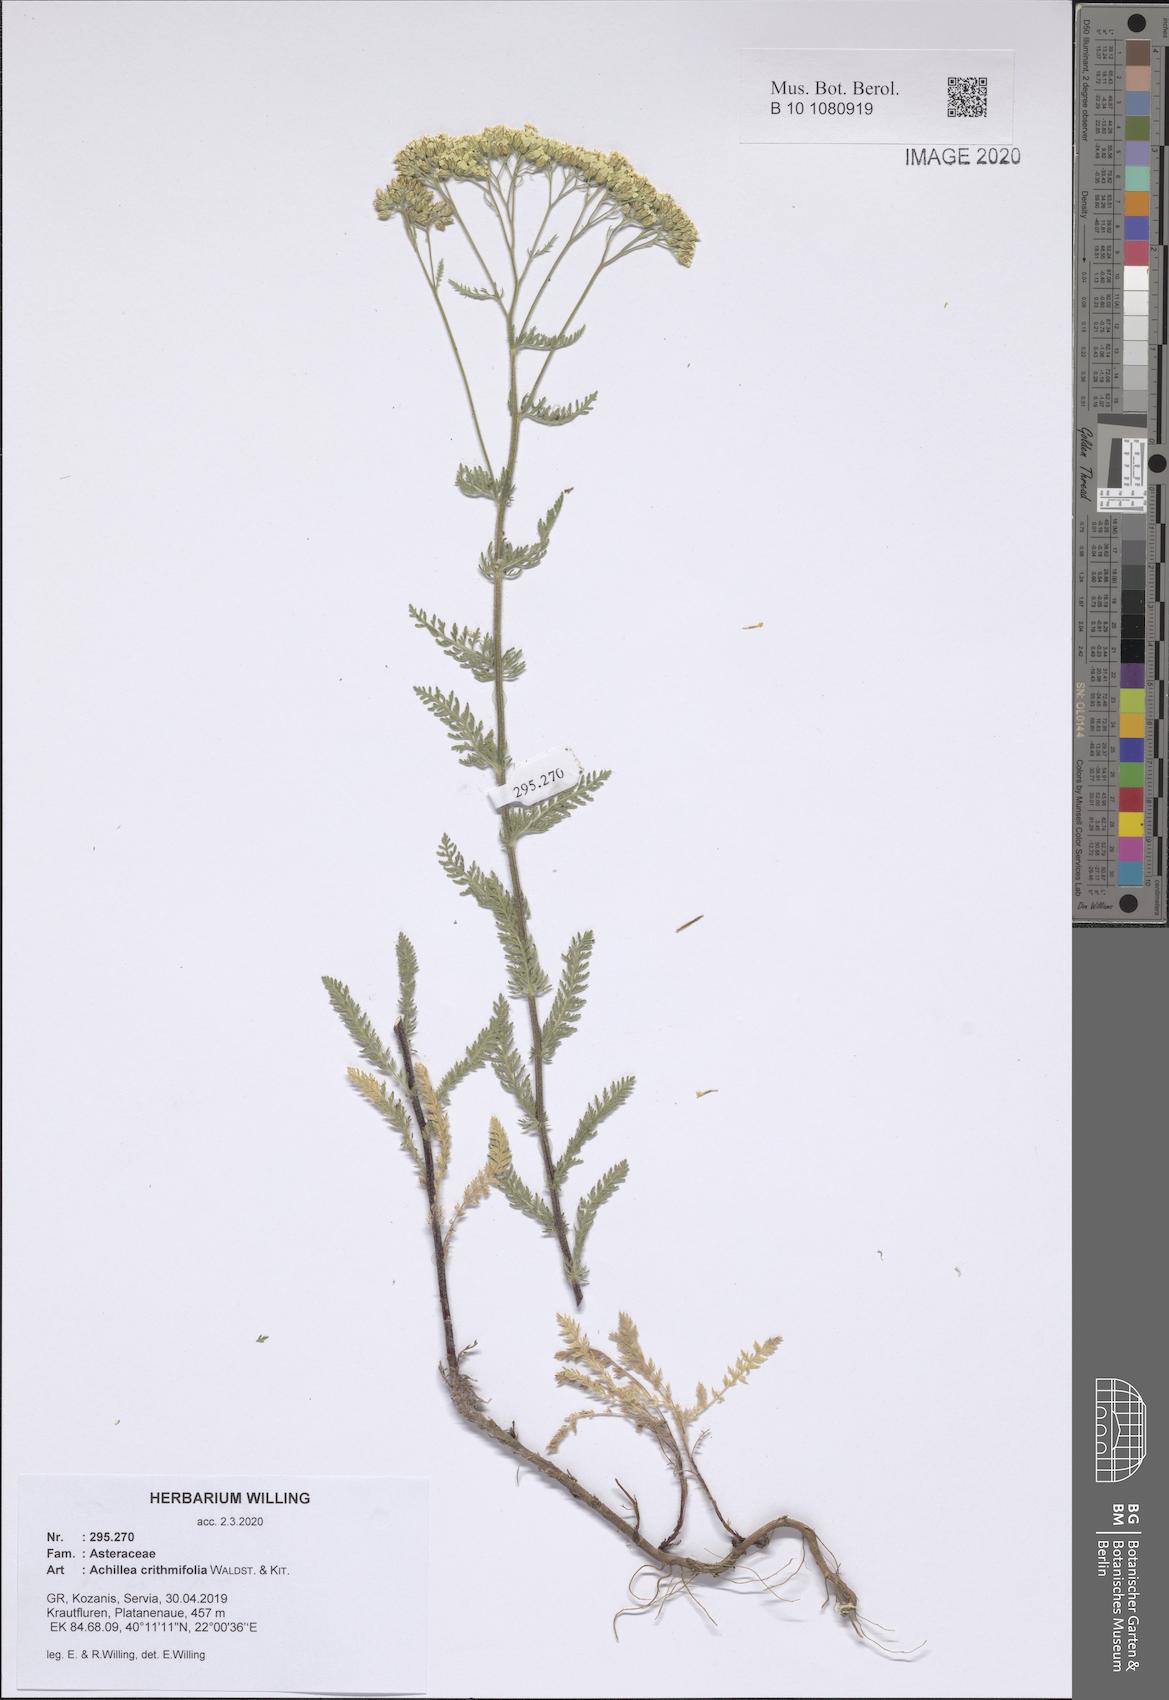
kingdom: Plantae
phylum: Tracheophyta
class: Magnoliopsida
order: Asterales
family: Asteraceae
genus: Achillea
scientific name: Achillea crithmifolia
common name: Yarrow
